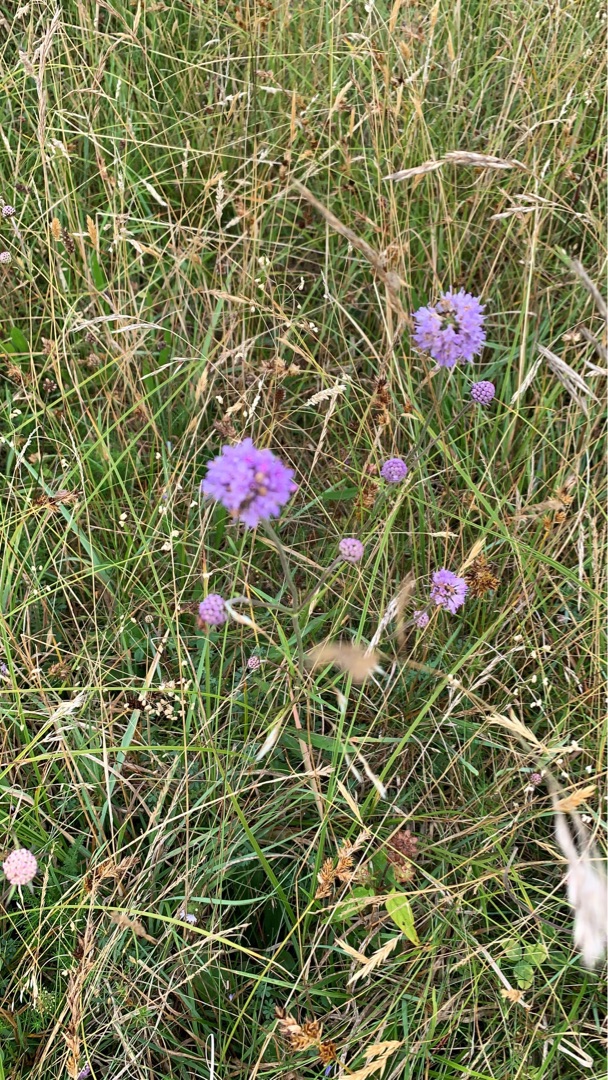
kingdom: Plantae
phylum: Tracheophyta
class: Magnoliopsida
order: Dipsacales
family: Caprifoliaceae
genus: Succisa
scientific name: Succisa pratensis
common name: Djævelsbid
